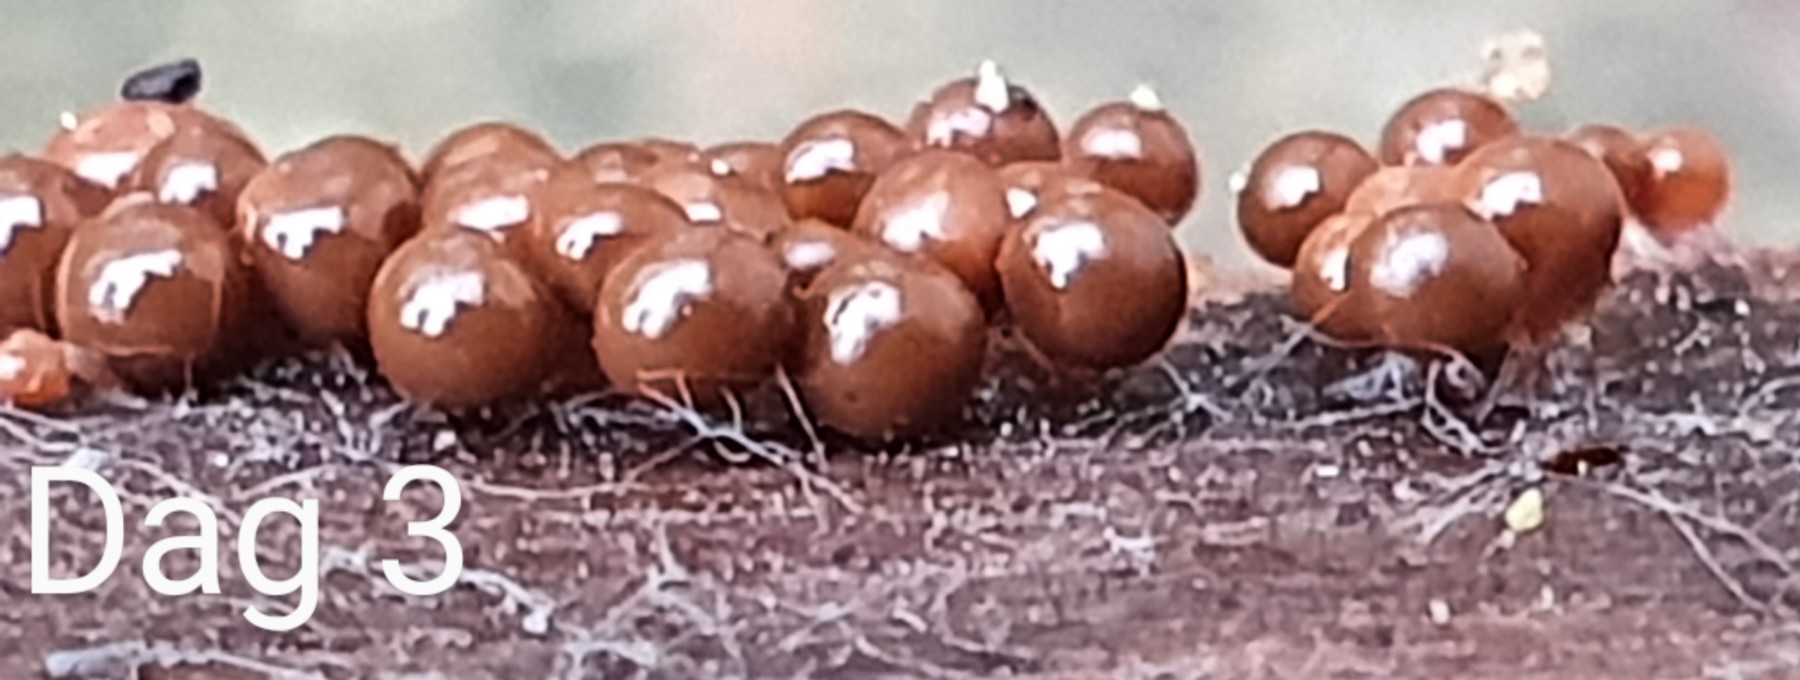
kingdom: Protozoa
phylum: Mycetozoa
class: Myxomycetes
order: Trichiales
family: Trichiaceae
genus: Trichia
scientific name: Trichia crateriformis
